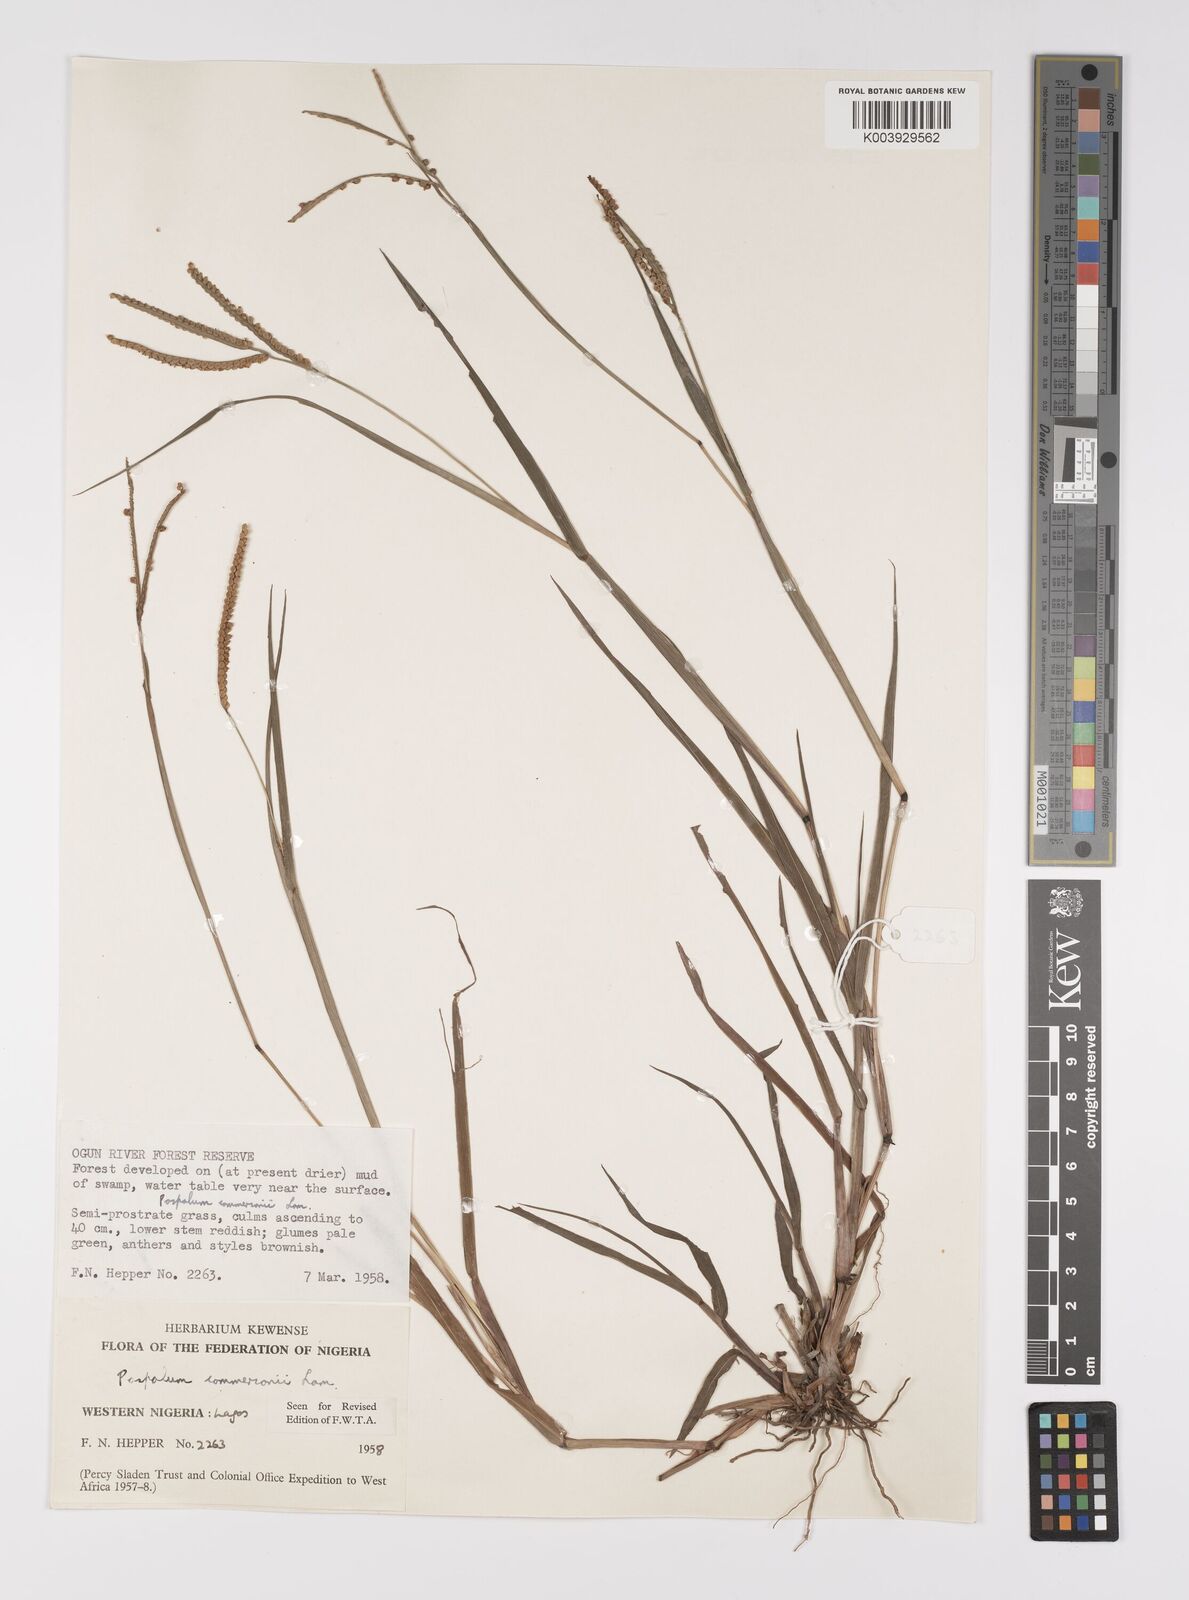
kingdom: Plantae
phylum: Tracheophyta
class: Liliopsida
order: Poales
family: Poaceae
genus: Paspalum
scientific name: Paspalum scrobiculatum
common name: Kodo millet
